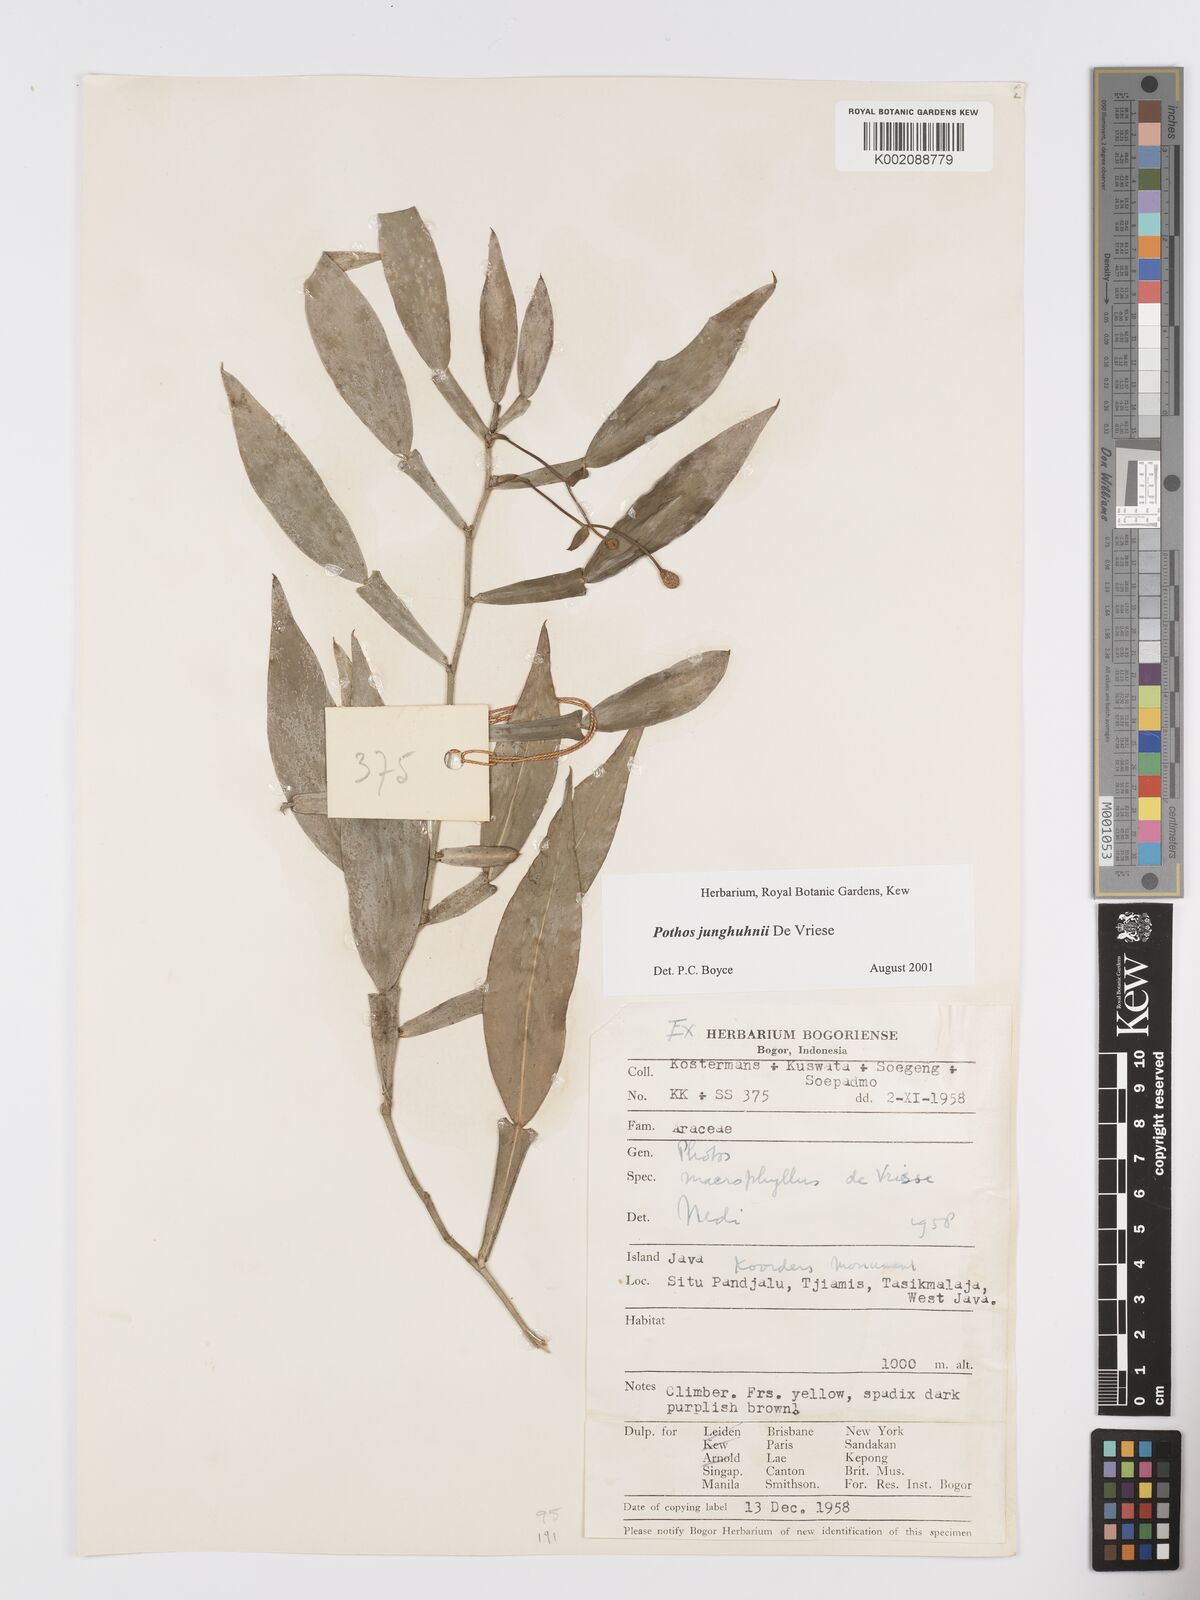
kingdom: Plantae
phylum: Tracheophyta
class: Liliopsida
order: Alismatales
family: Araceae
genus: Pothos
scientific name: Pothos junghuhnii
